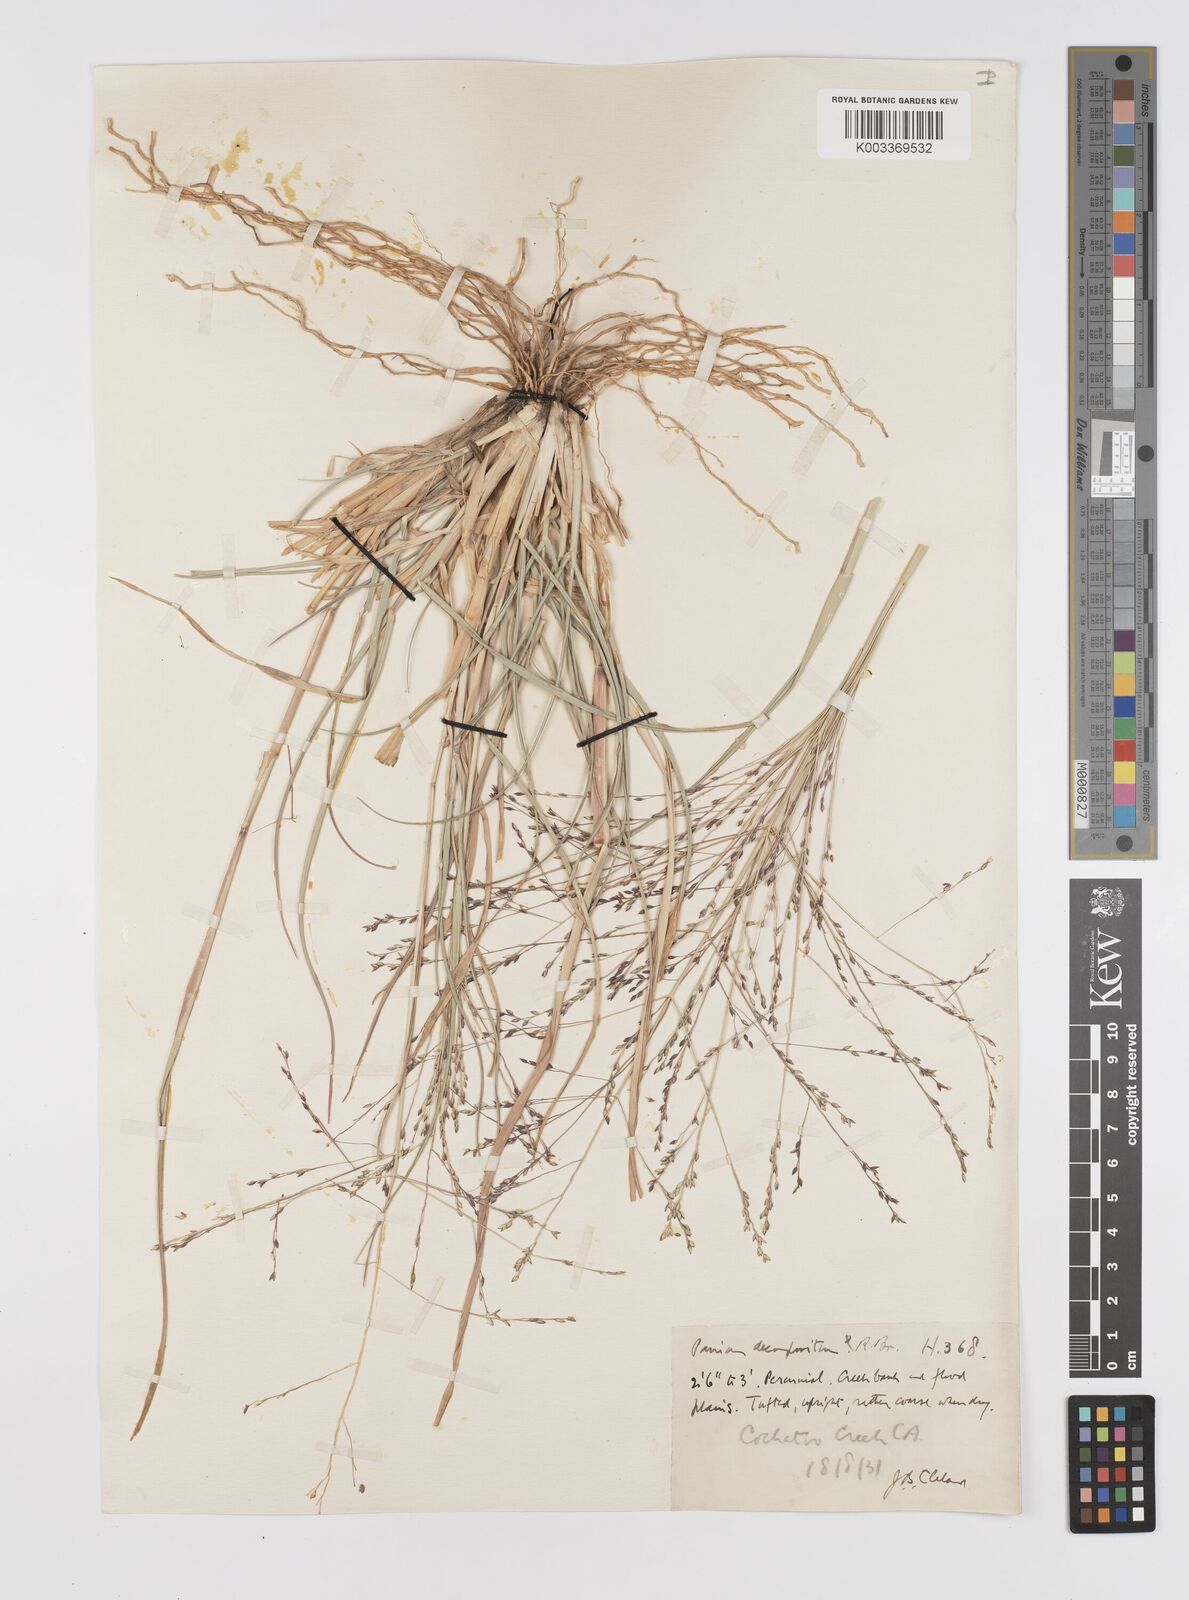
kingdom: Plantae
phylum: Tracheophyta
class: Liliopsida
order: Poales
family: Poaceae
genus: Panicum
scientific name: Panicum decompositum
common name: Australian millet
